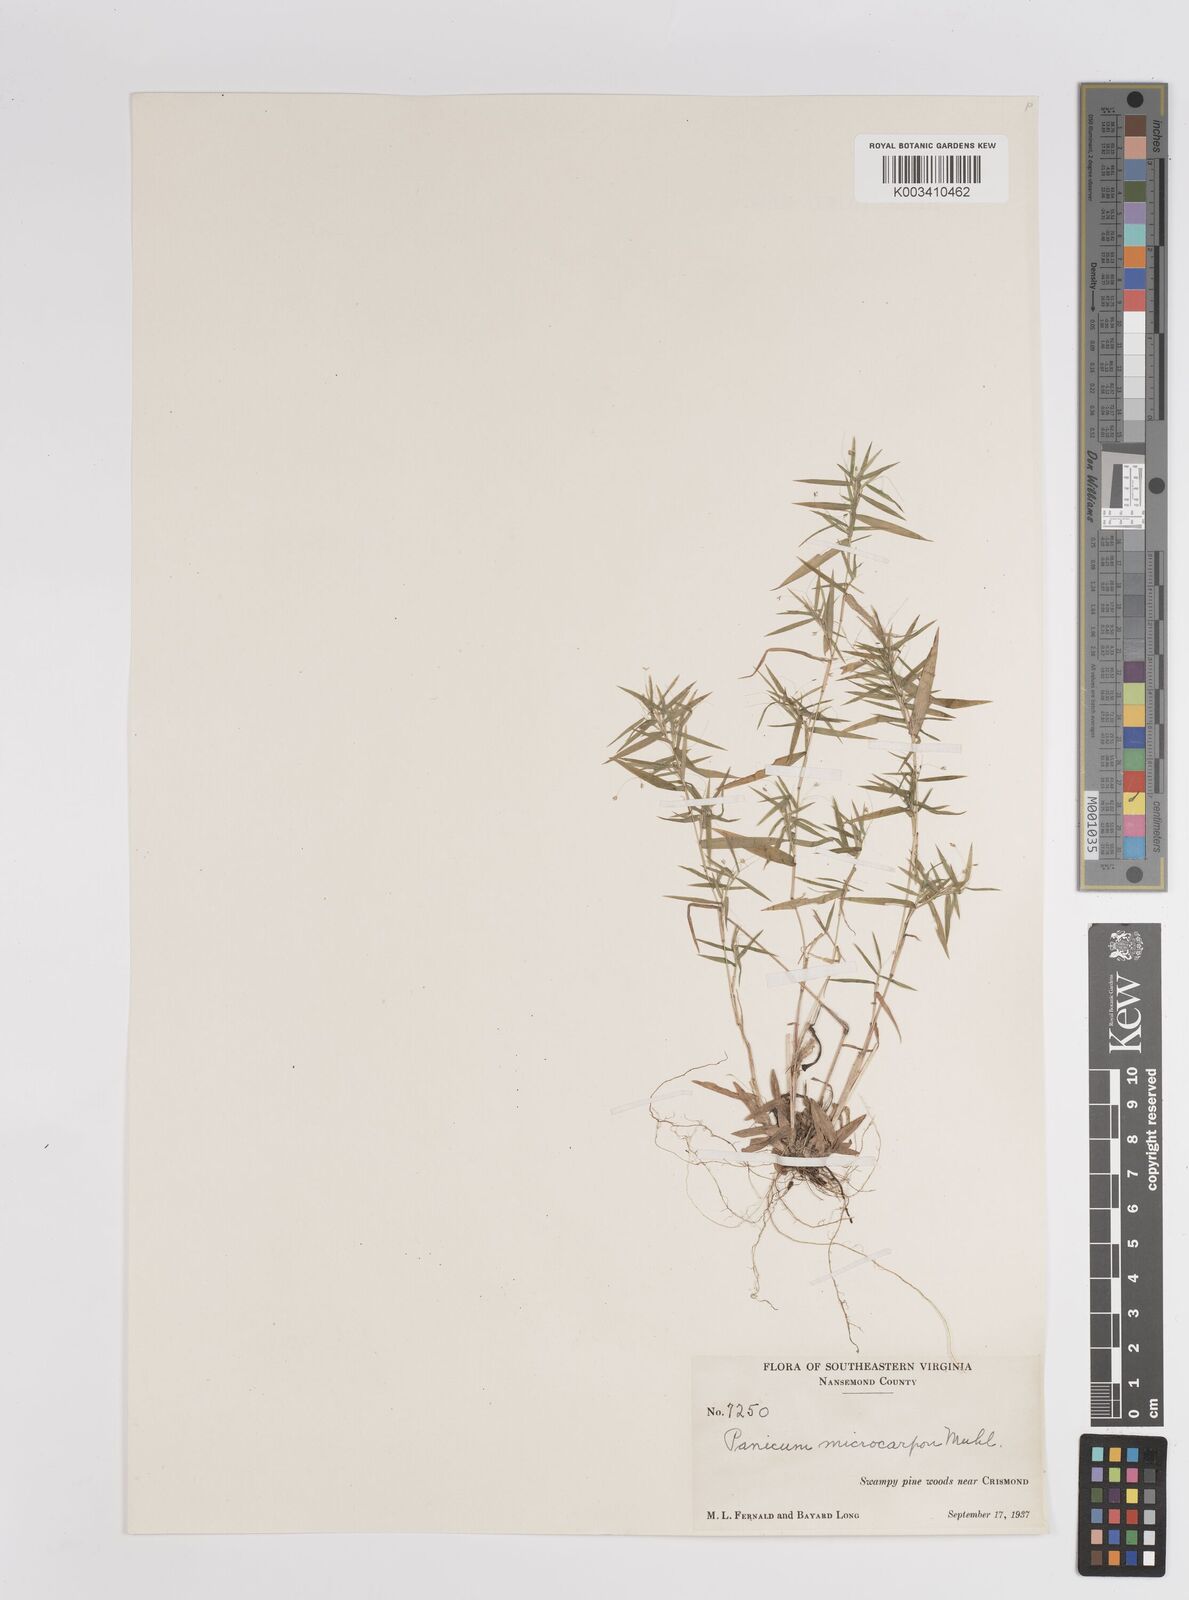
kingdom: Plantae
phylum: Tracheophyta
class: Liliopsida
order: Poales
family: Poaceae
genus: Dichanthelium
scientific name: Dichanthelium polyanthes
